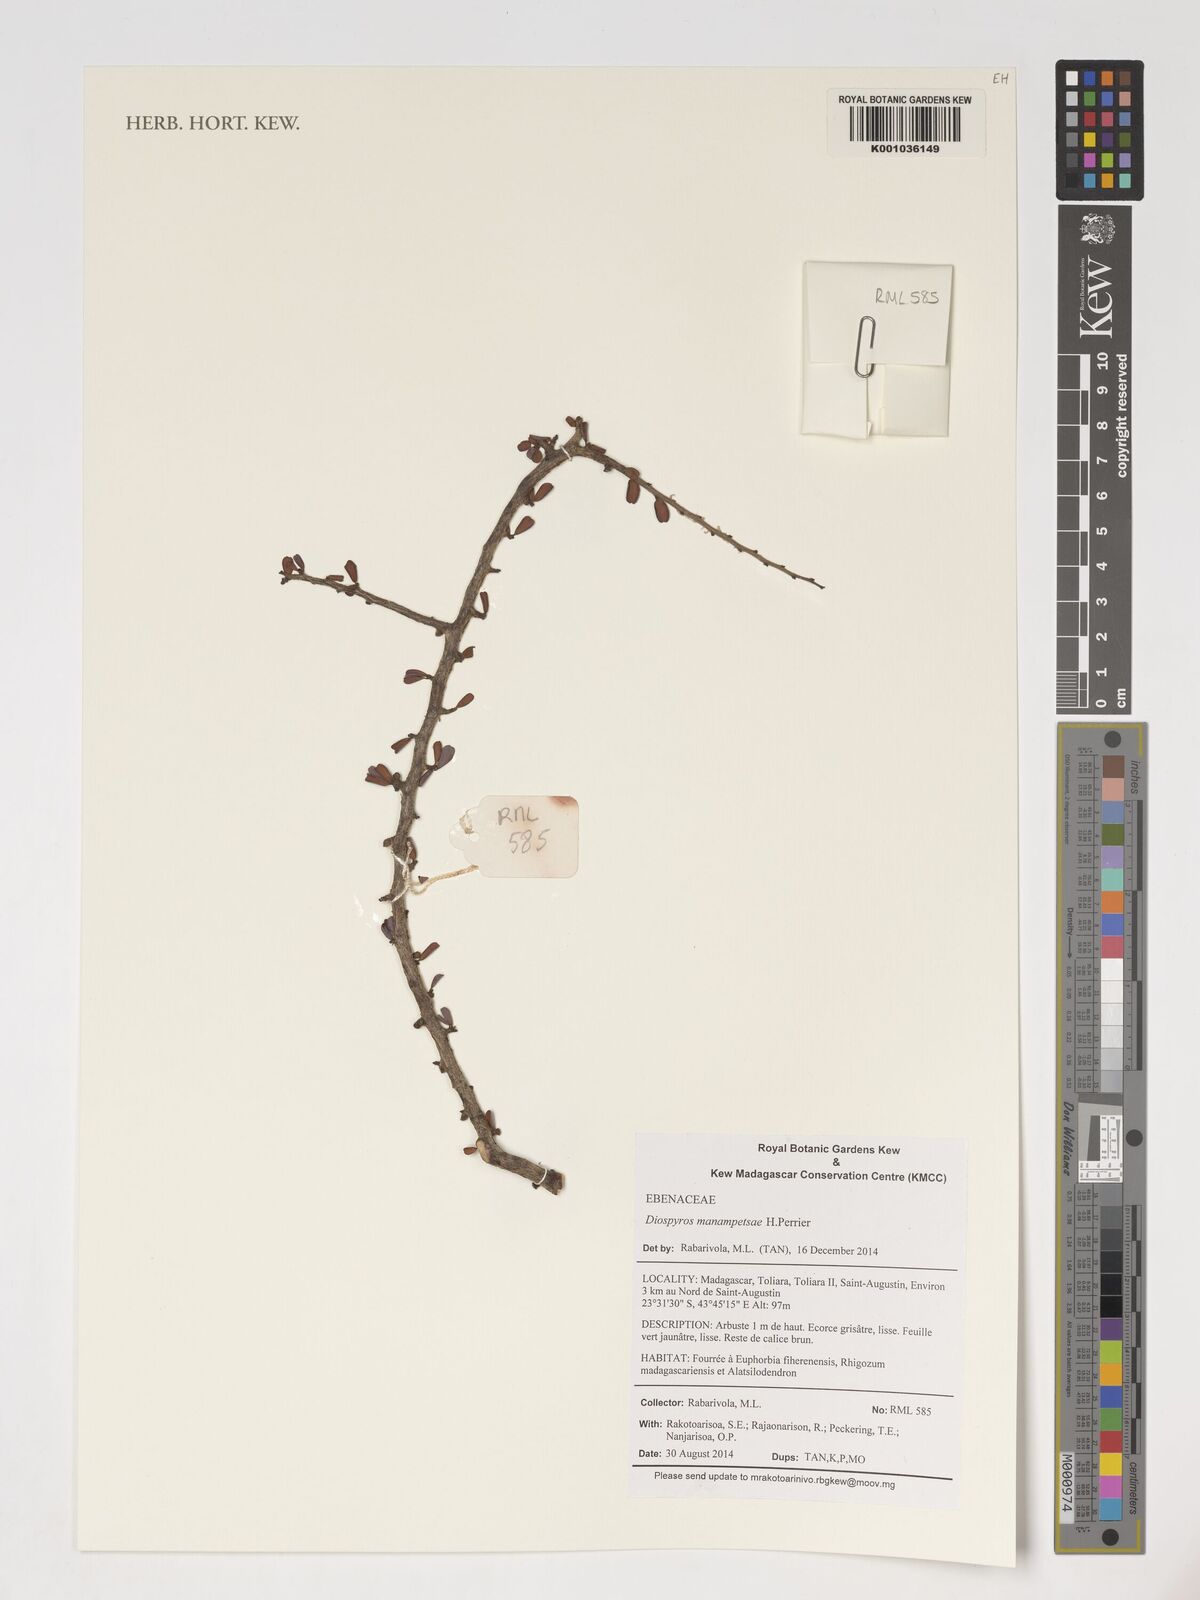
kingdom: Plantae
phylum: Tracheophyta
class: Magnoliopsida
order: Ericales
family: Ebenaceae
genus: Diospyros
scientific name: Diospyros manampetsae
